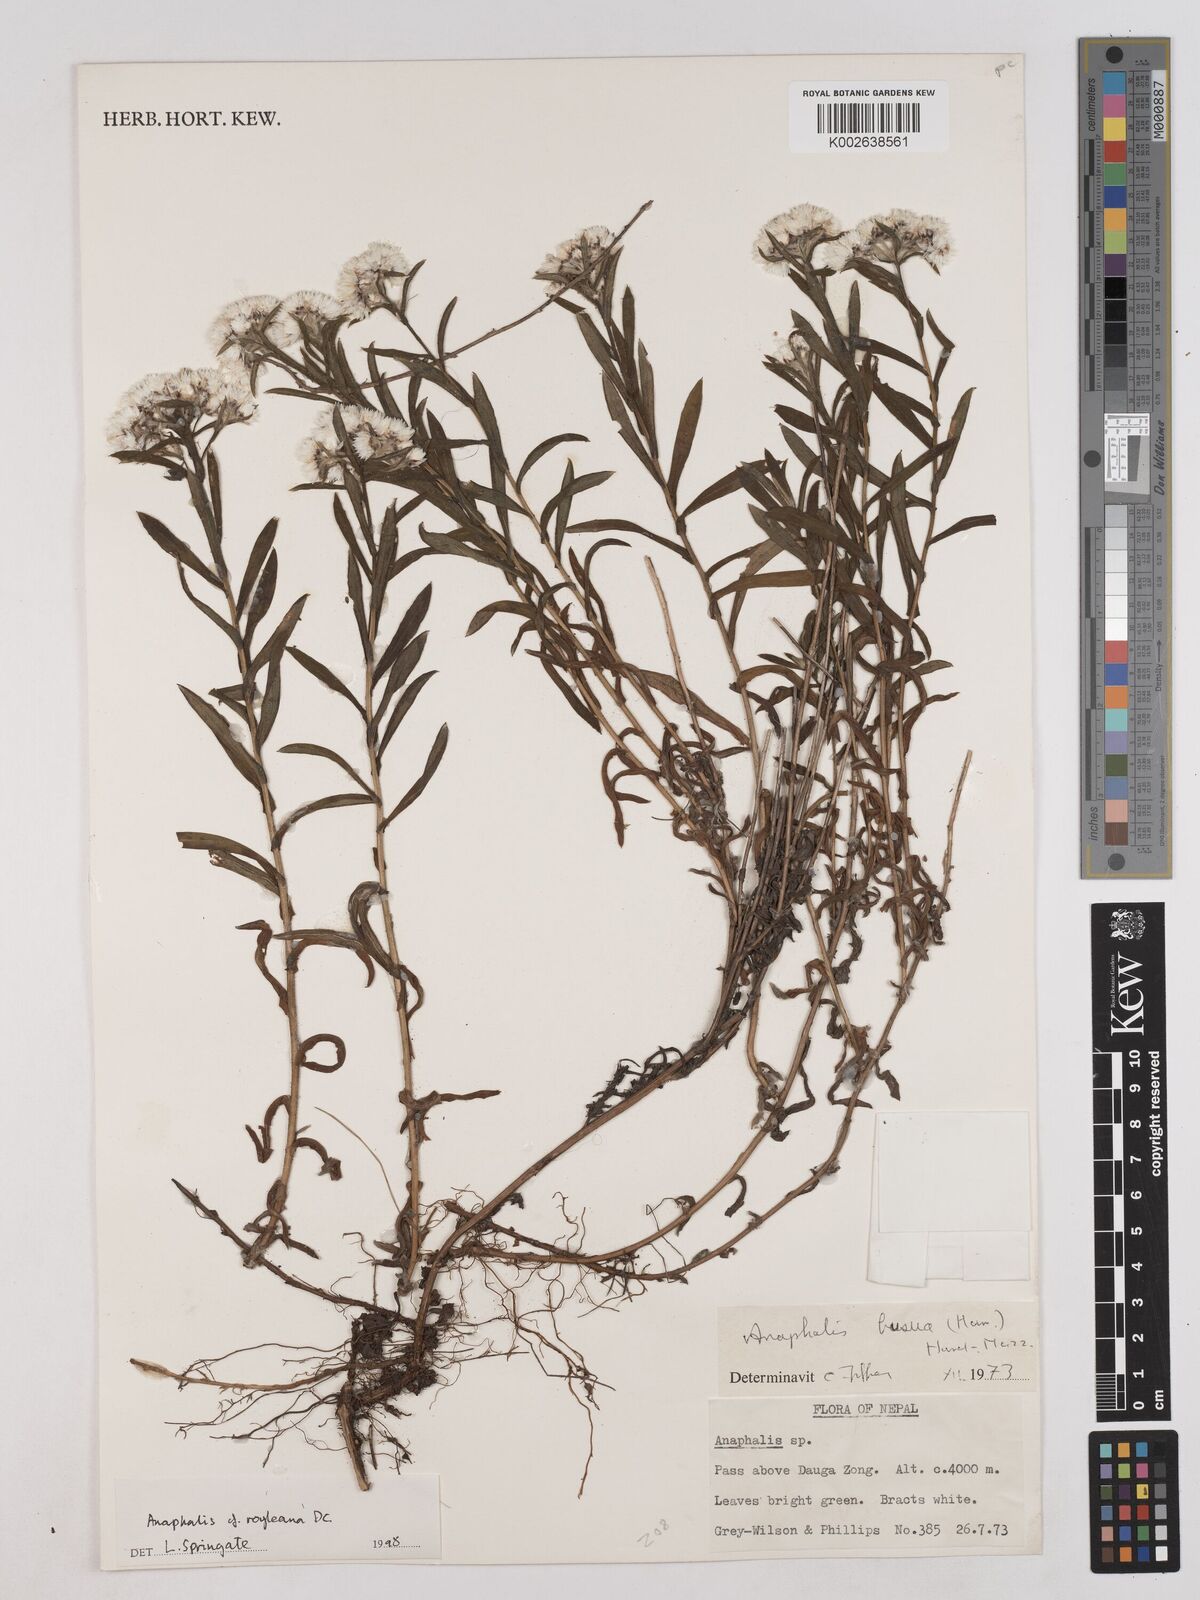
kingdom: Plantae
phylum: Tracheophyta
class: Magnoliopsida
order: Asterales
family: Asteraceae
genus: Anaphalis
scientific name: Anaphalis royleana
